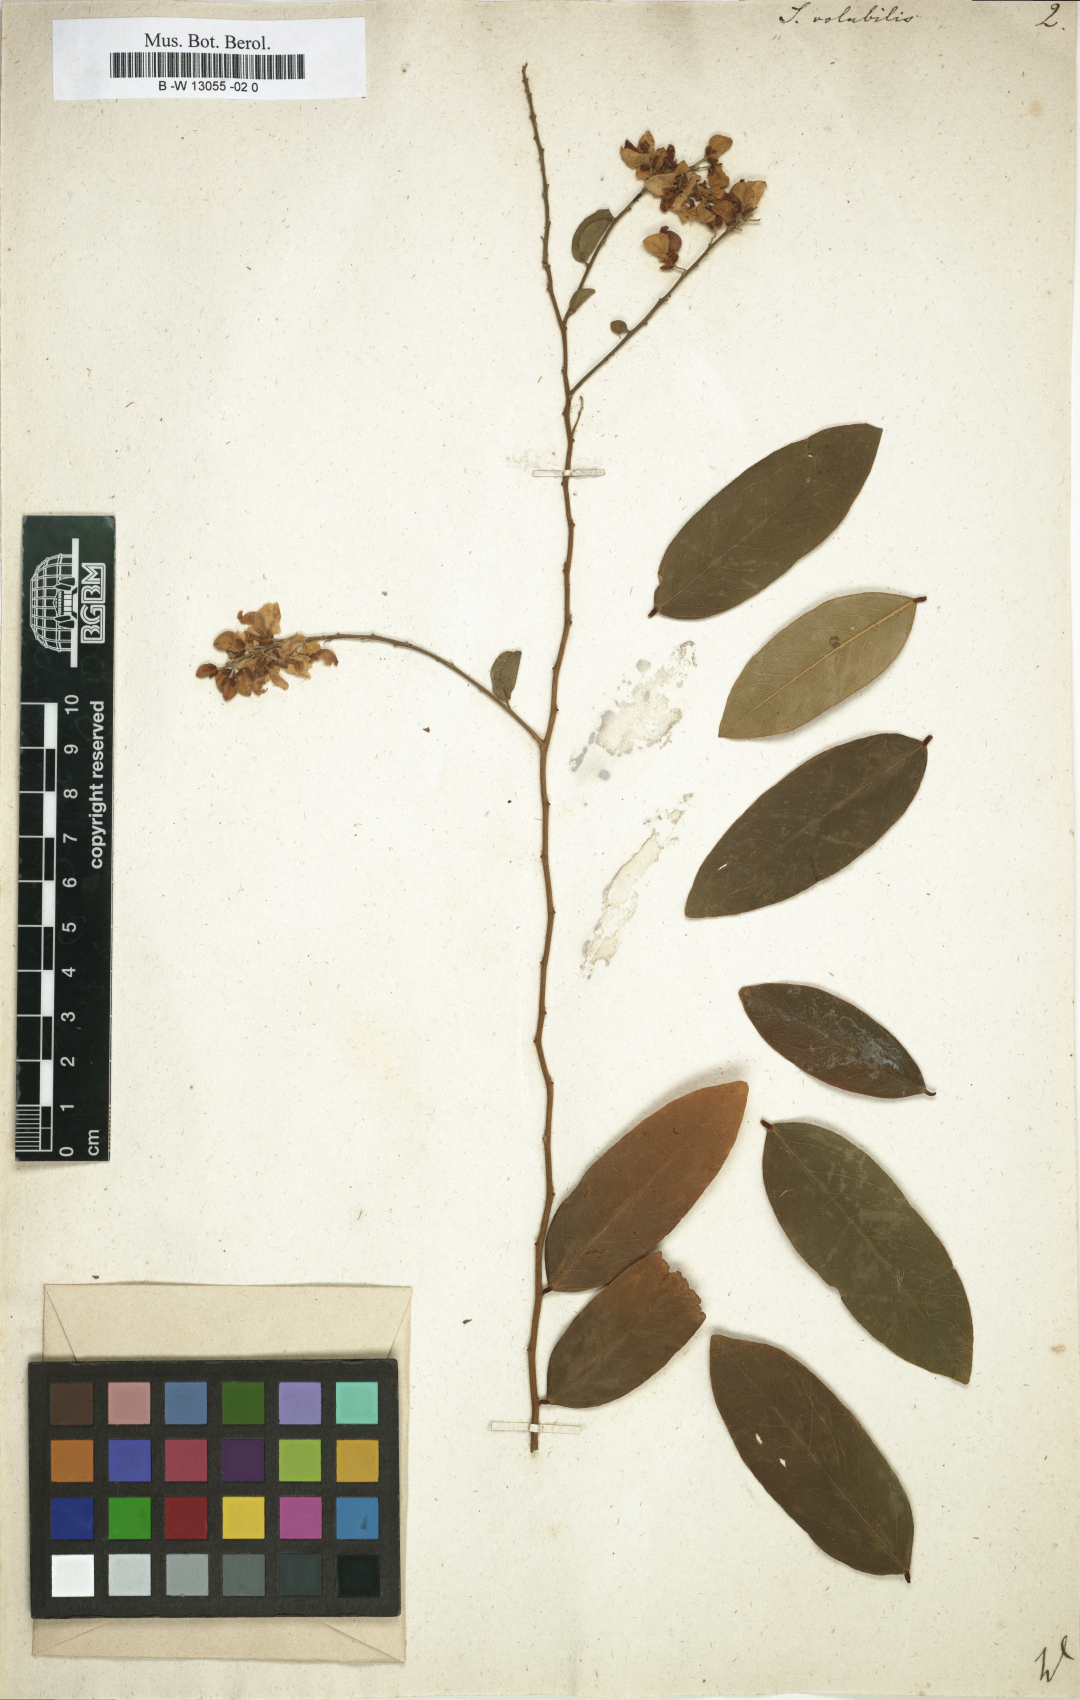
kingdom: Plantae
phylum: Tracheophyta
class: Magnoliopsida
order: Fabales
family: Polygalaceae
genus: Securidaca
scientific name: Securidaca
